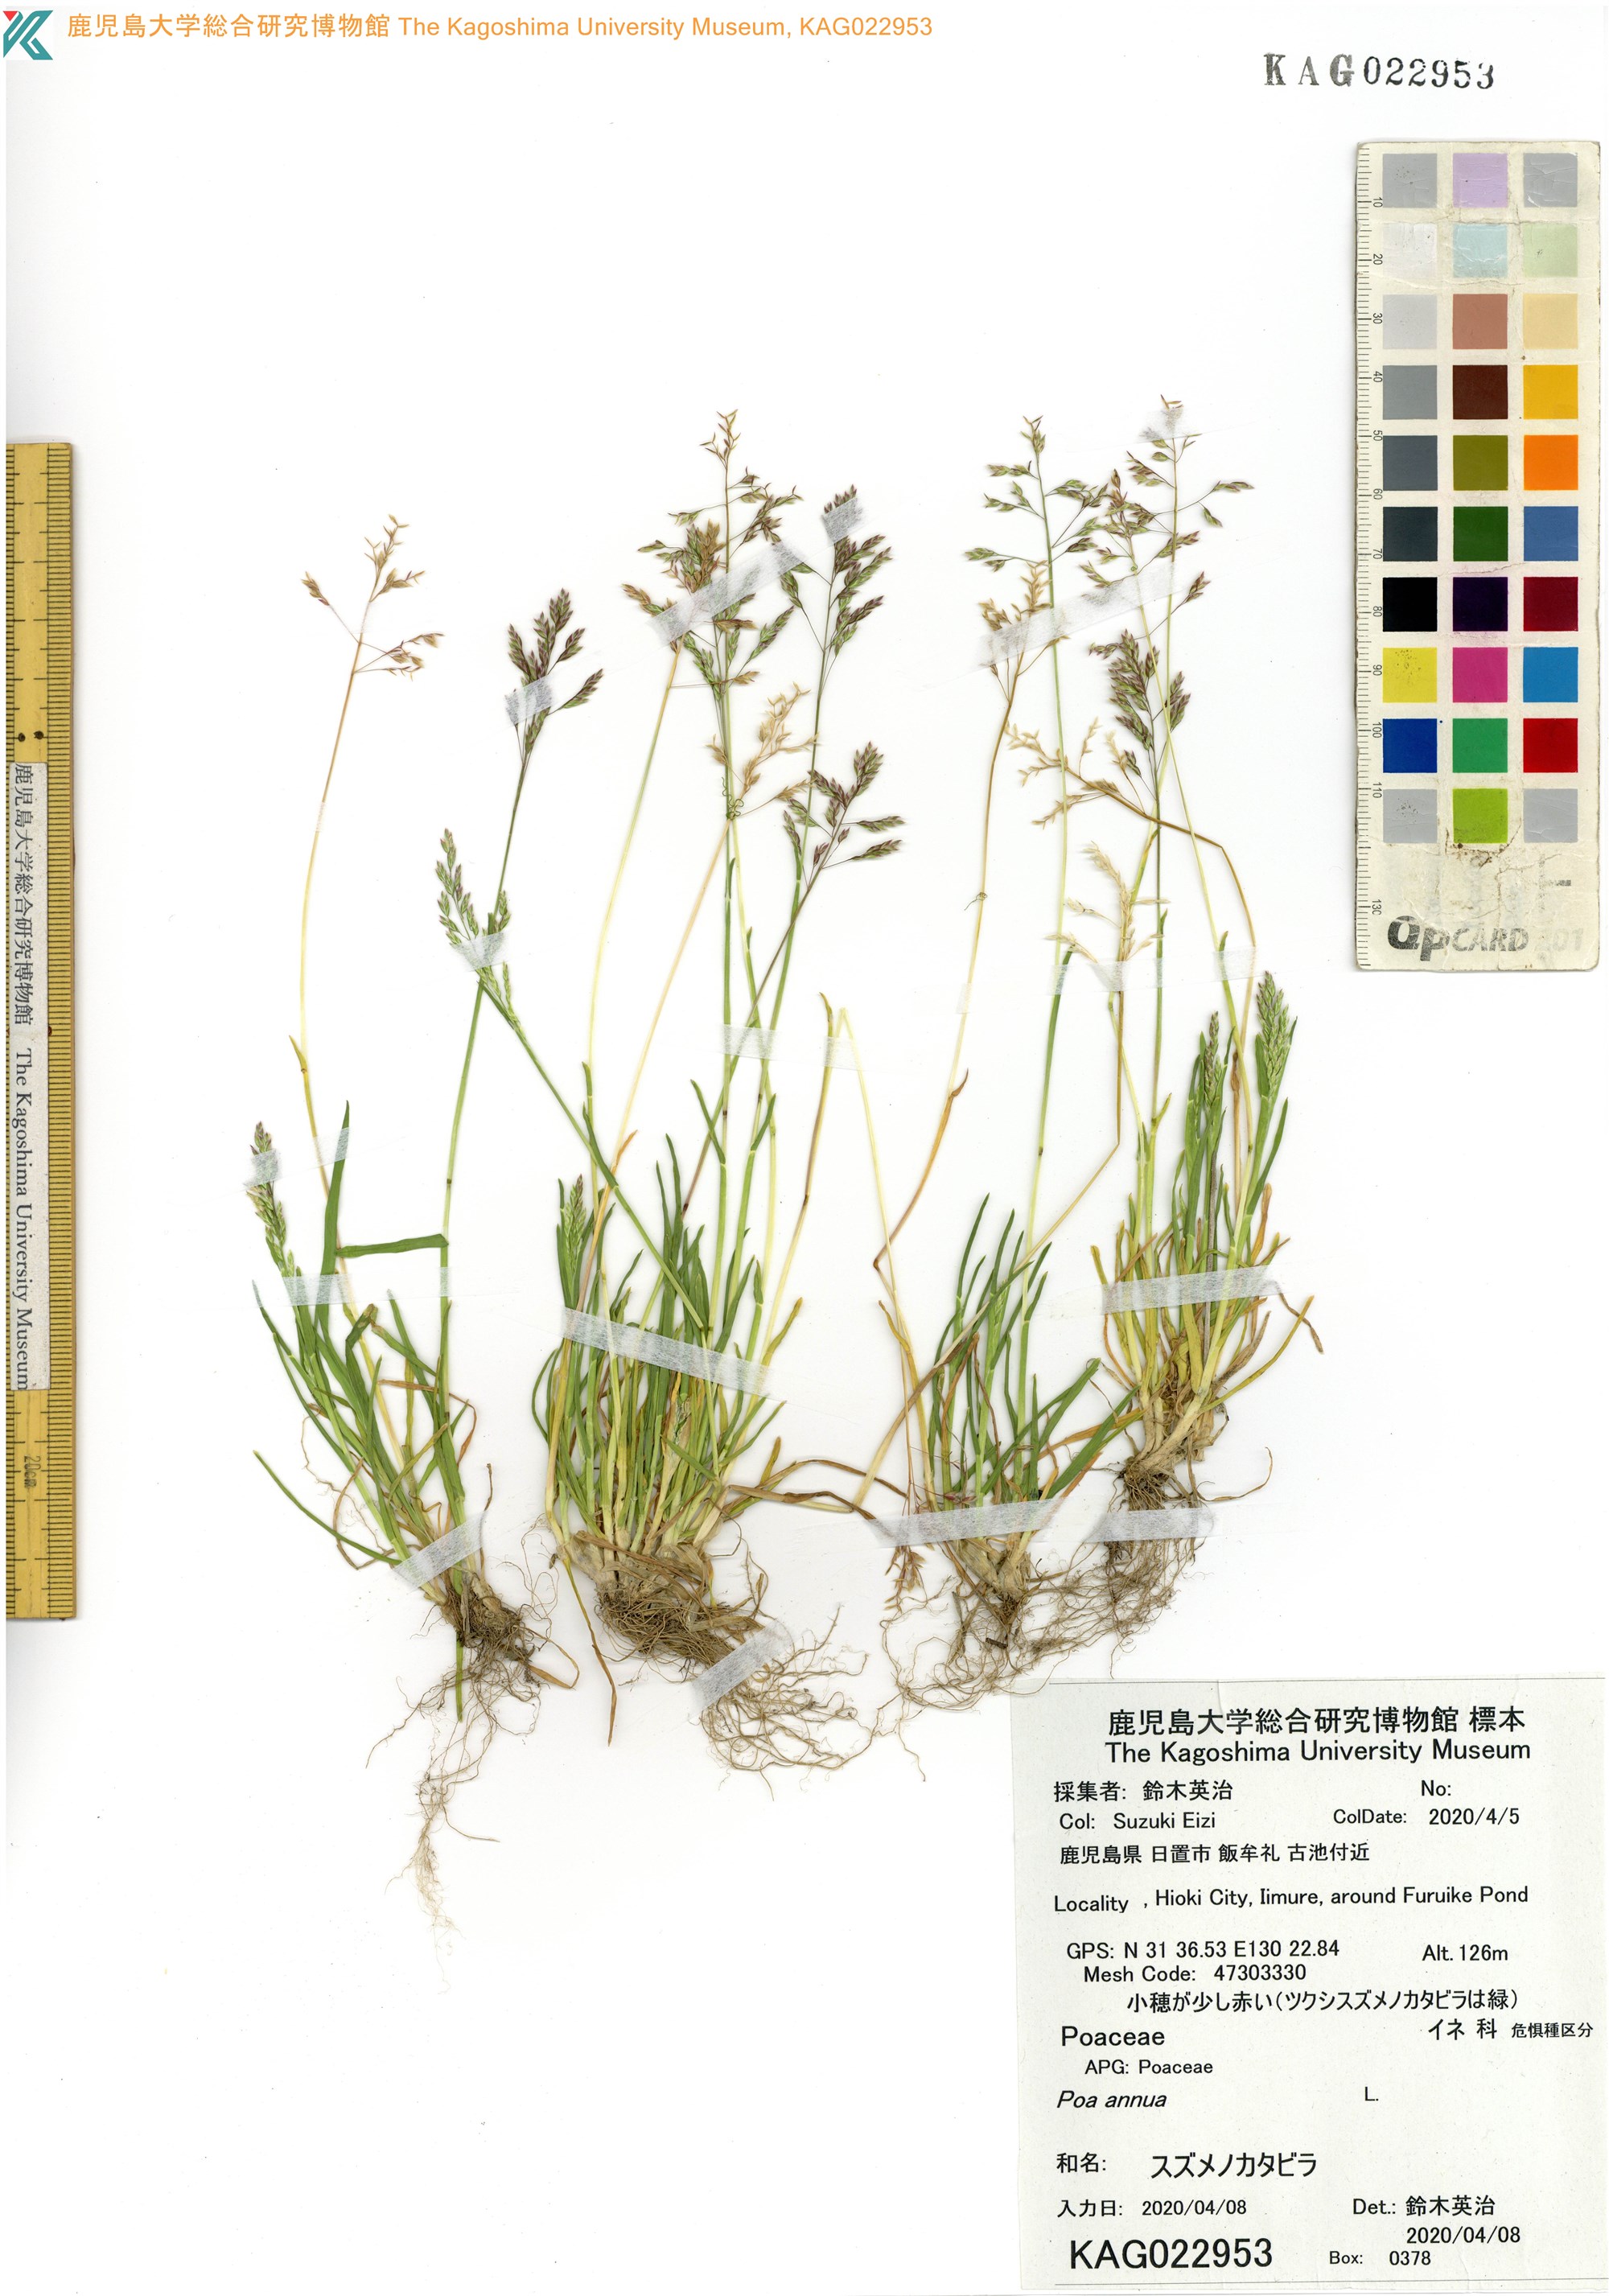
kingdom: Plantae
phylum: Tracheophyta
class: Liliopsida
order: Poales
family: Poaceae
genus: Poa
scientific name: Poa annua
